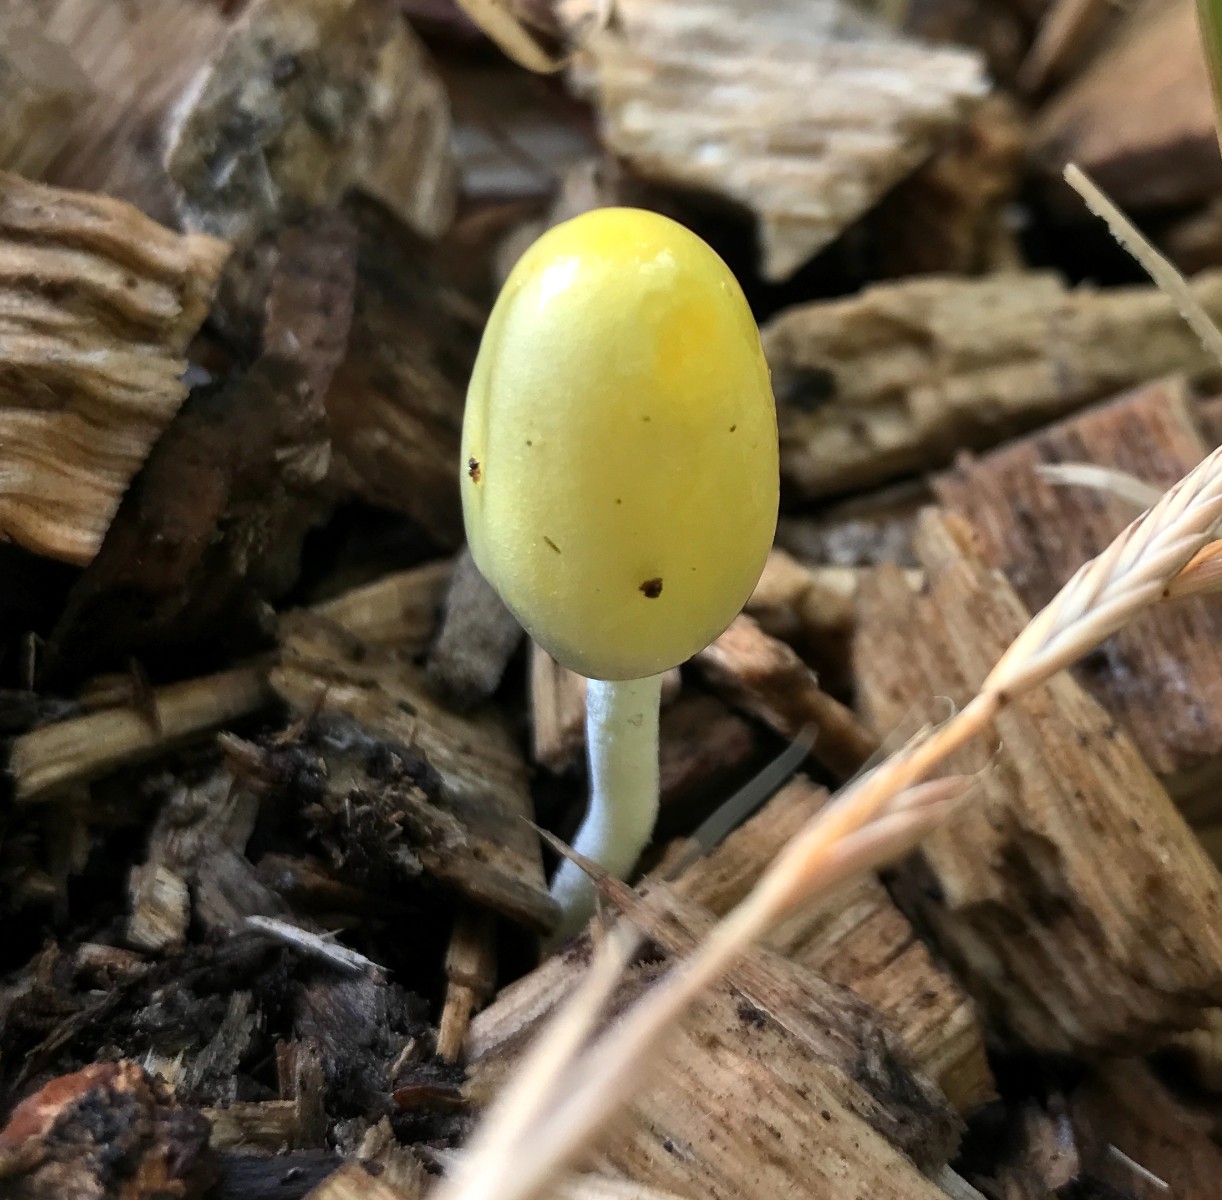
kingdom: Fungi
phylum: Basidiomycota
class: Agaricomycetes
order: Agaricales
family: Bolbitiaceae
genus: Bolbitius
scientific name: Bolbitius titubans
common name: almindelig gulhat
